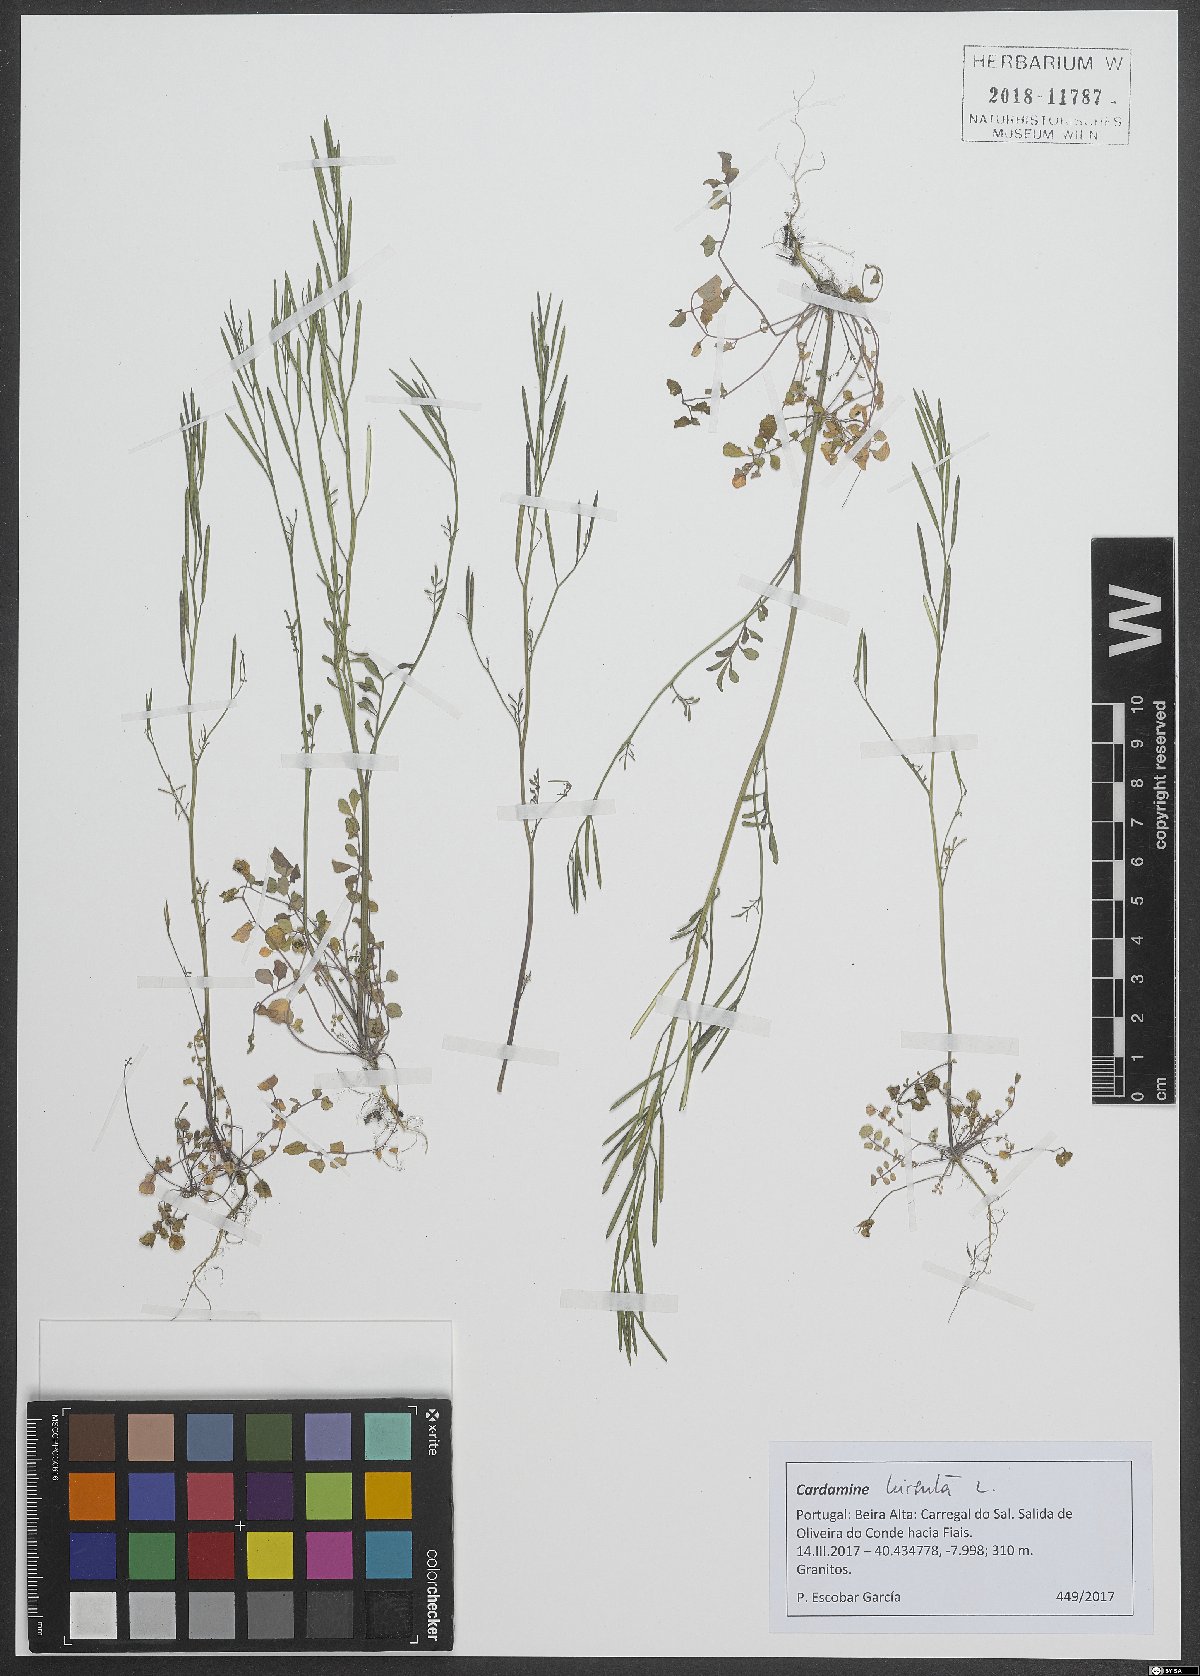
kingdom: Plantae
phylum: Tracheophyta
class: Magnoliopsida
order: Brassicales
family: Brassicaceae
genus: Cardamine
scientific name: Cardamine hirsuta
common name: Hairy bittercress
